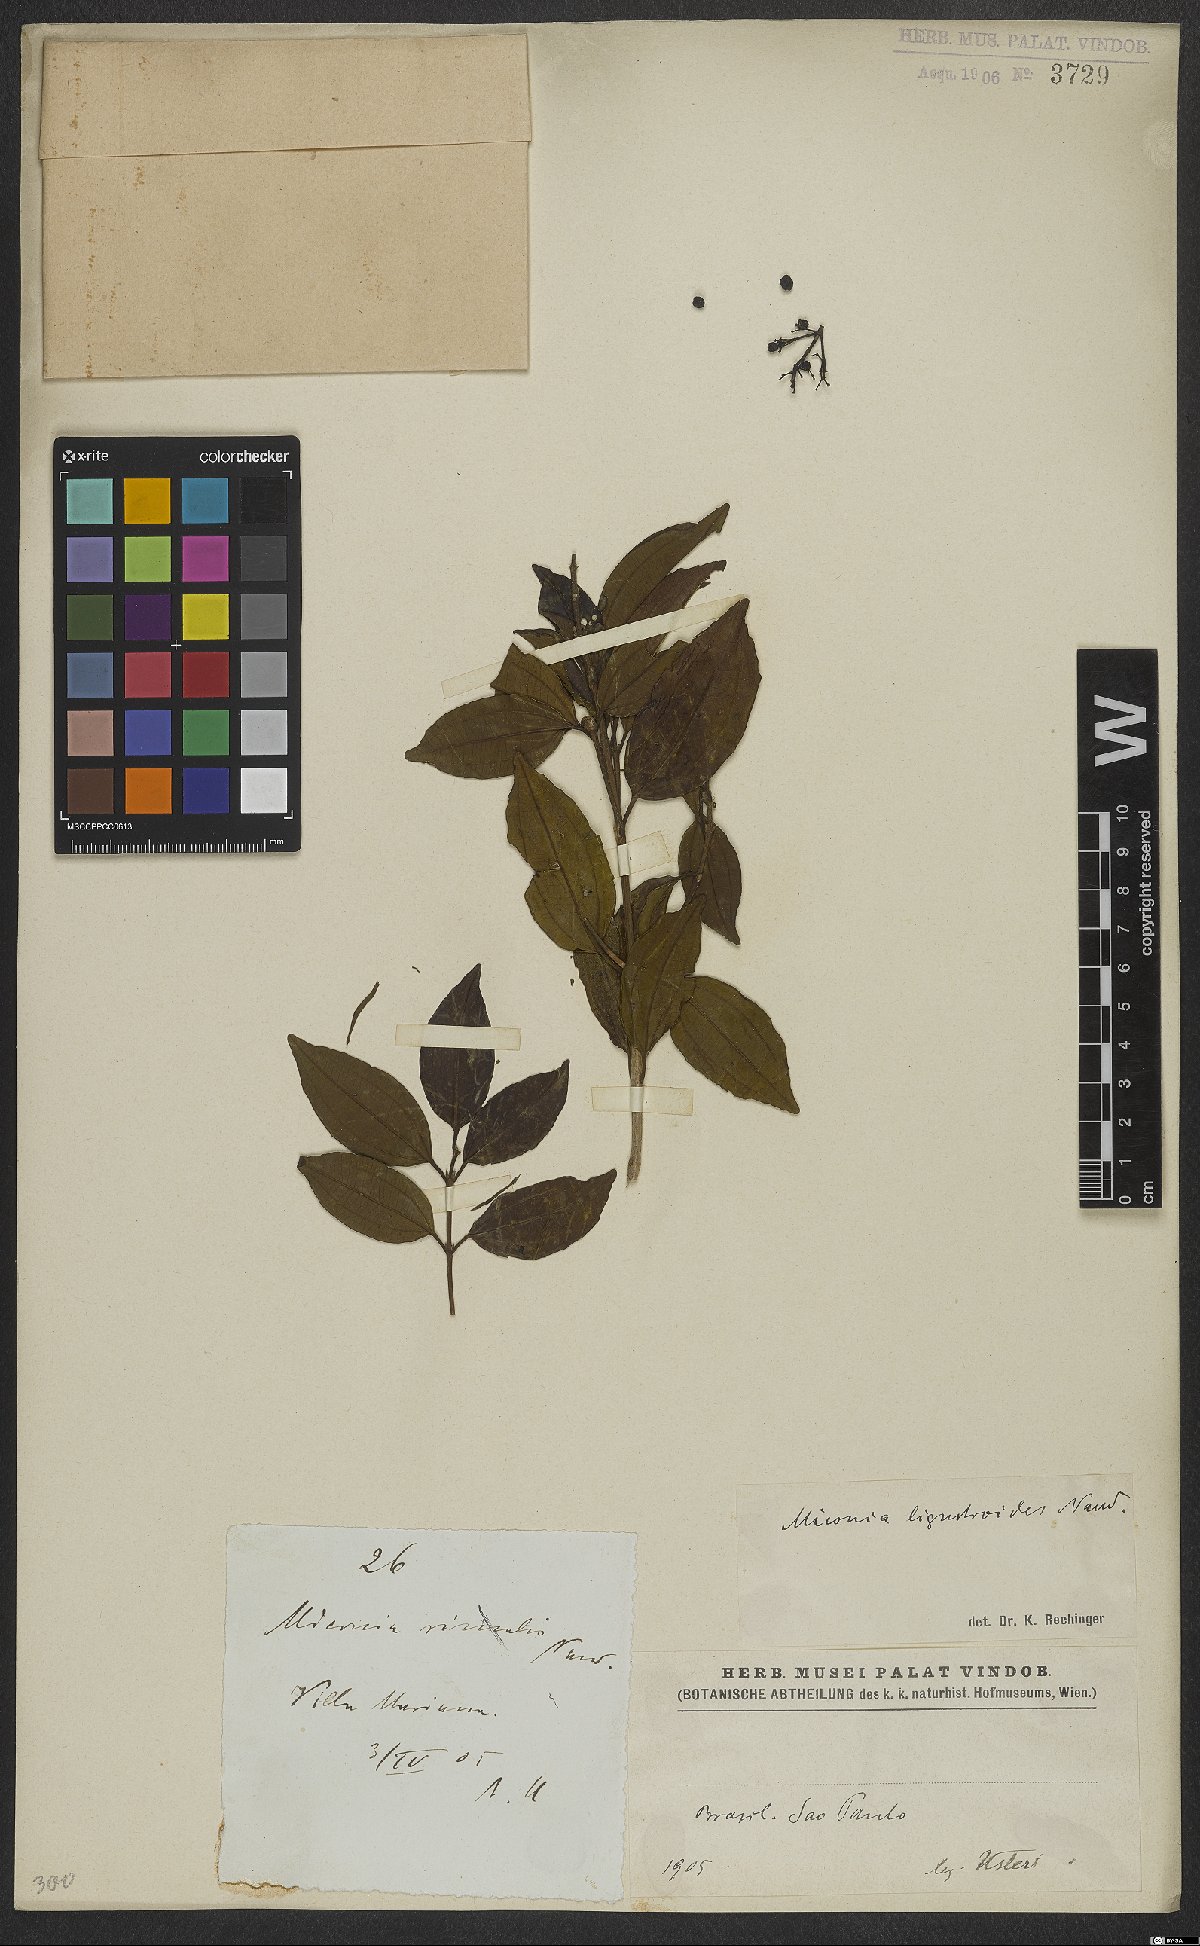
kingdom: Plantae
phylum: Tracheophyta
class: Magnoliopsida
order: Myrtales
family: Melastomataceae
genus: Miconia
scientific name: Miconia ligustroides
